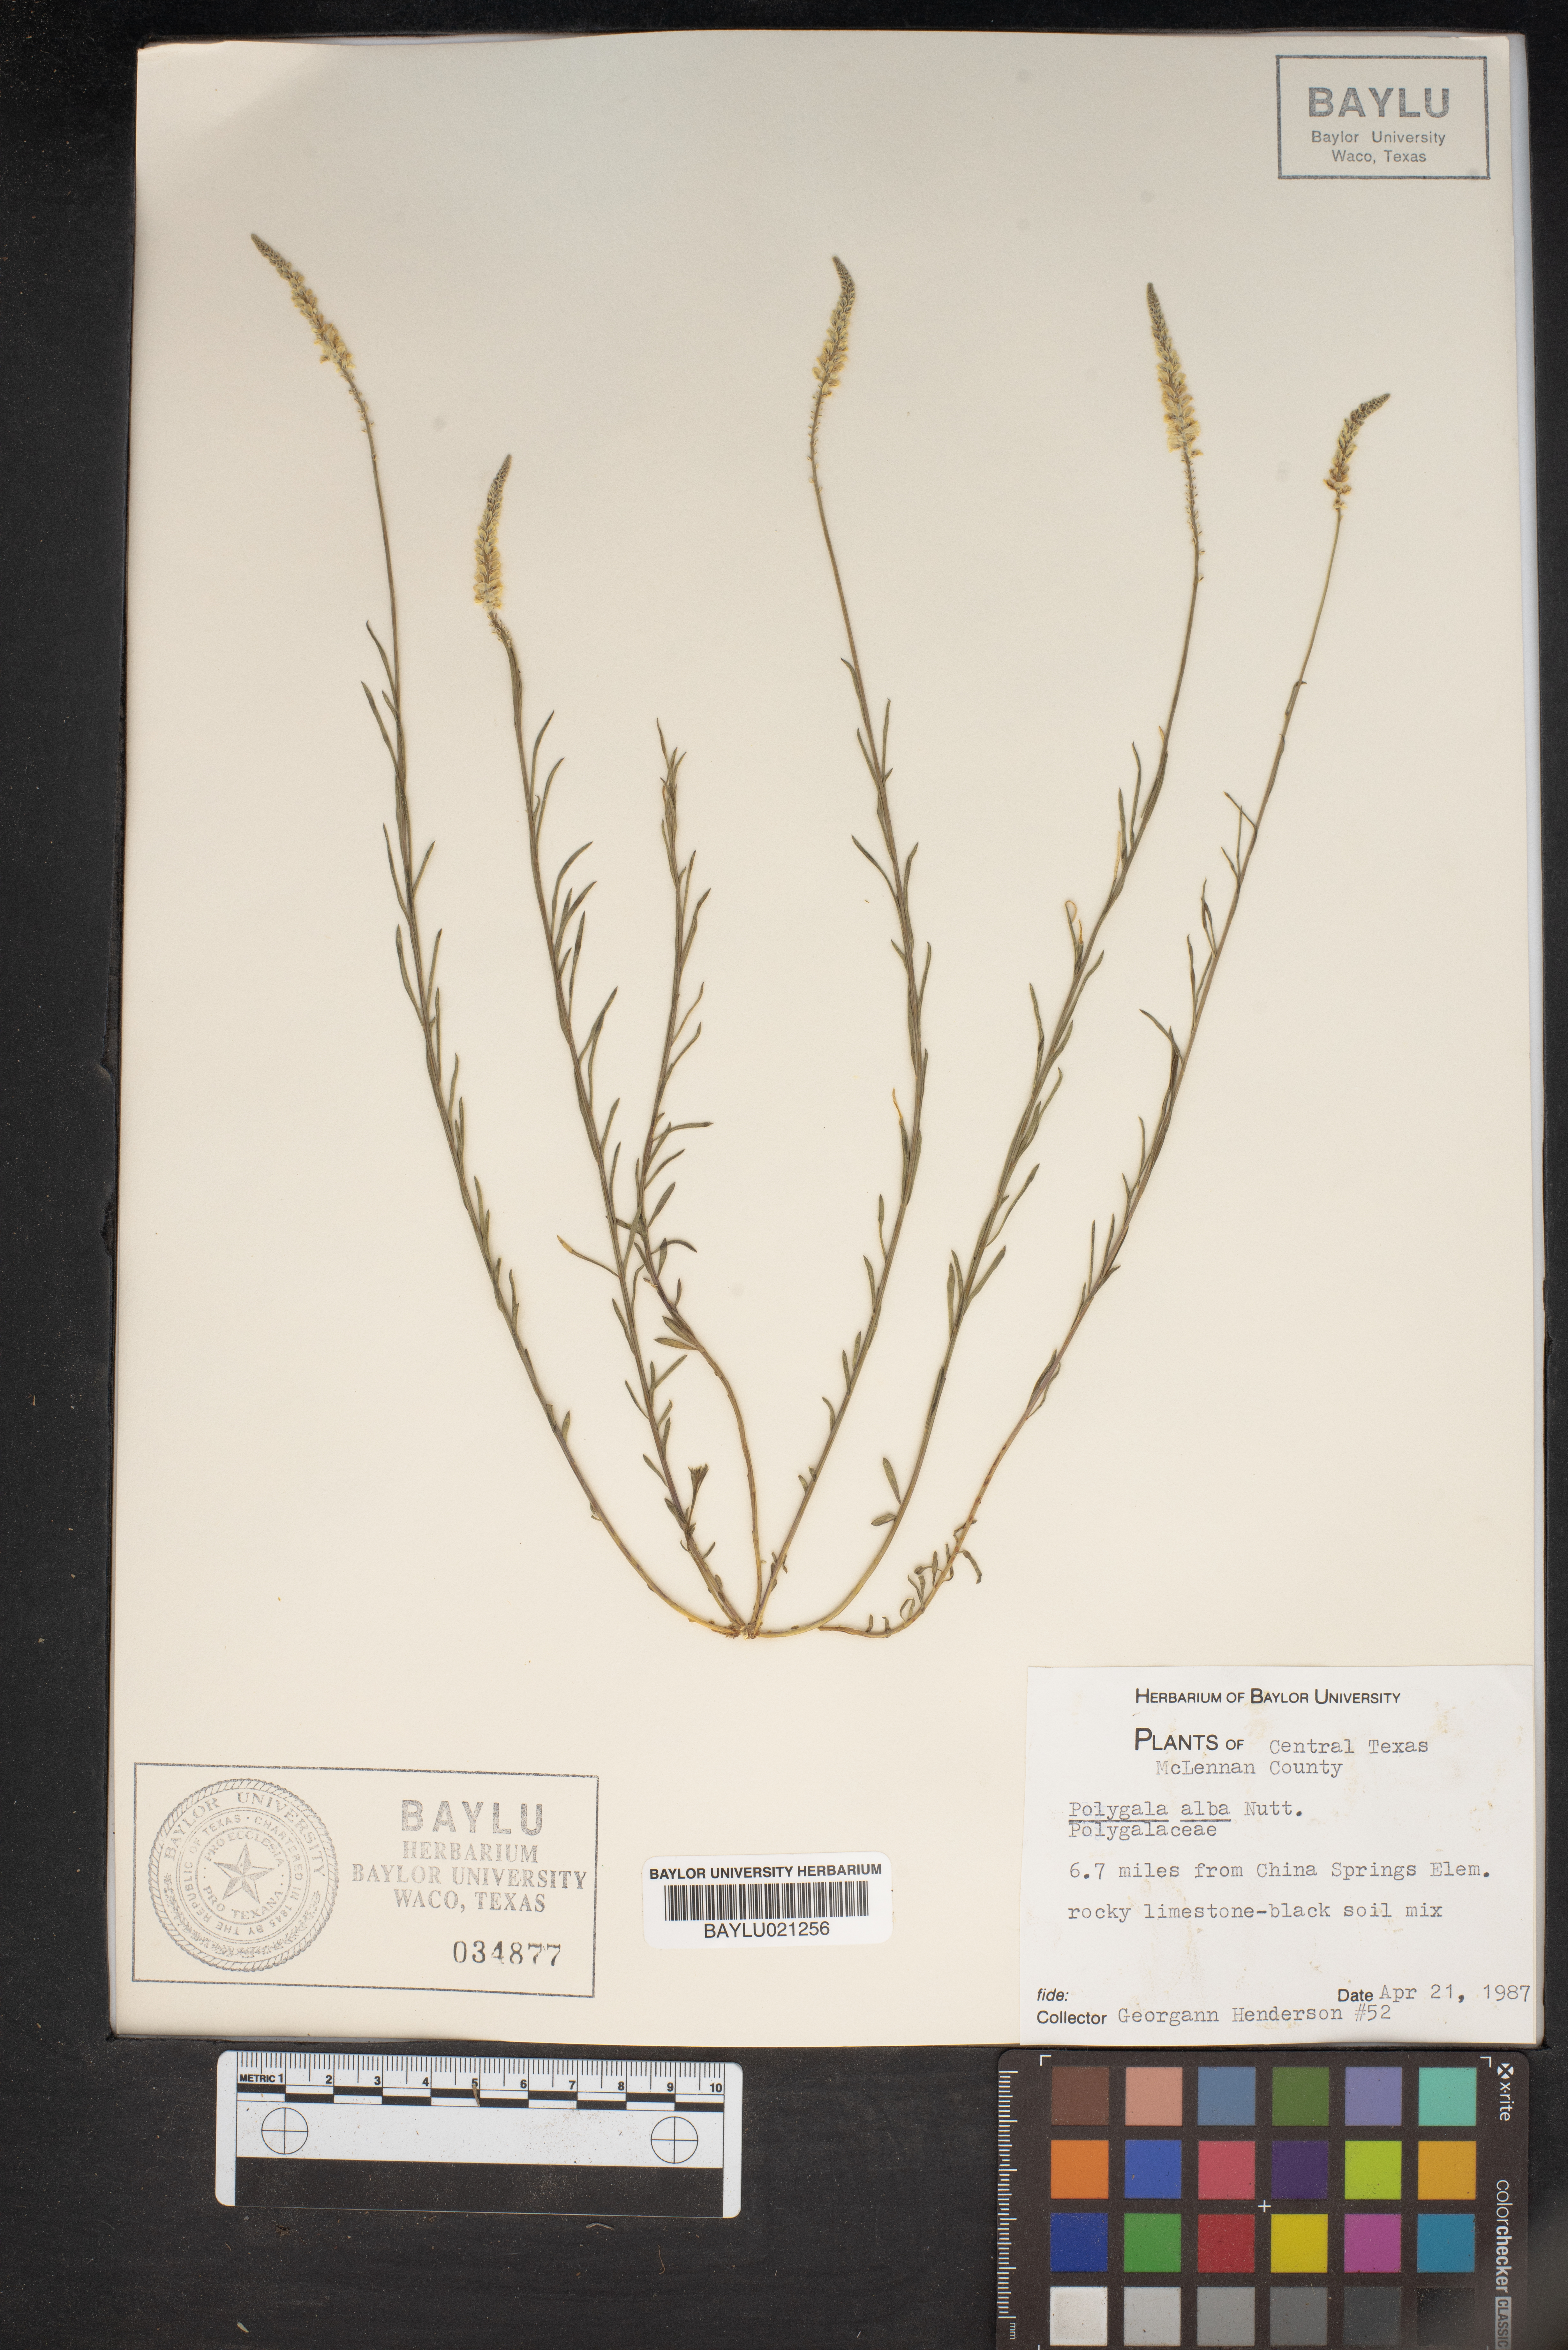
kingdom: Plantae
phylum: Tracheophyta
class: Magnoliopsida
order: Fabales
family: Polygalaceae
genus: Polygala
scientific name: Polygala alba
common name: White milkwort
